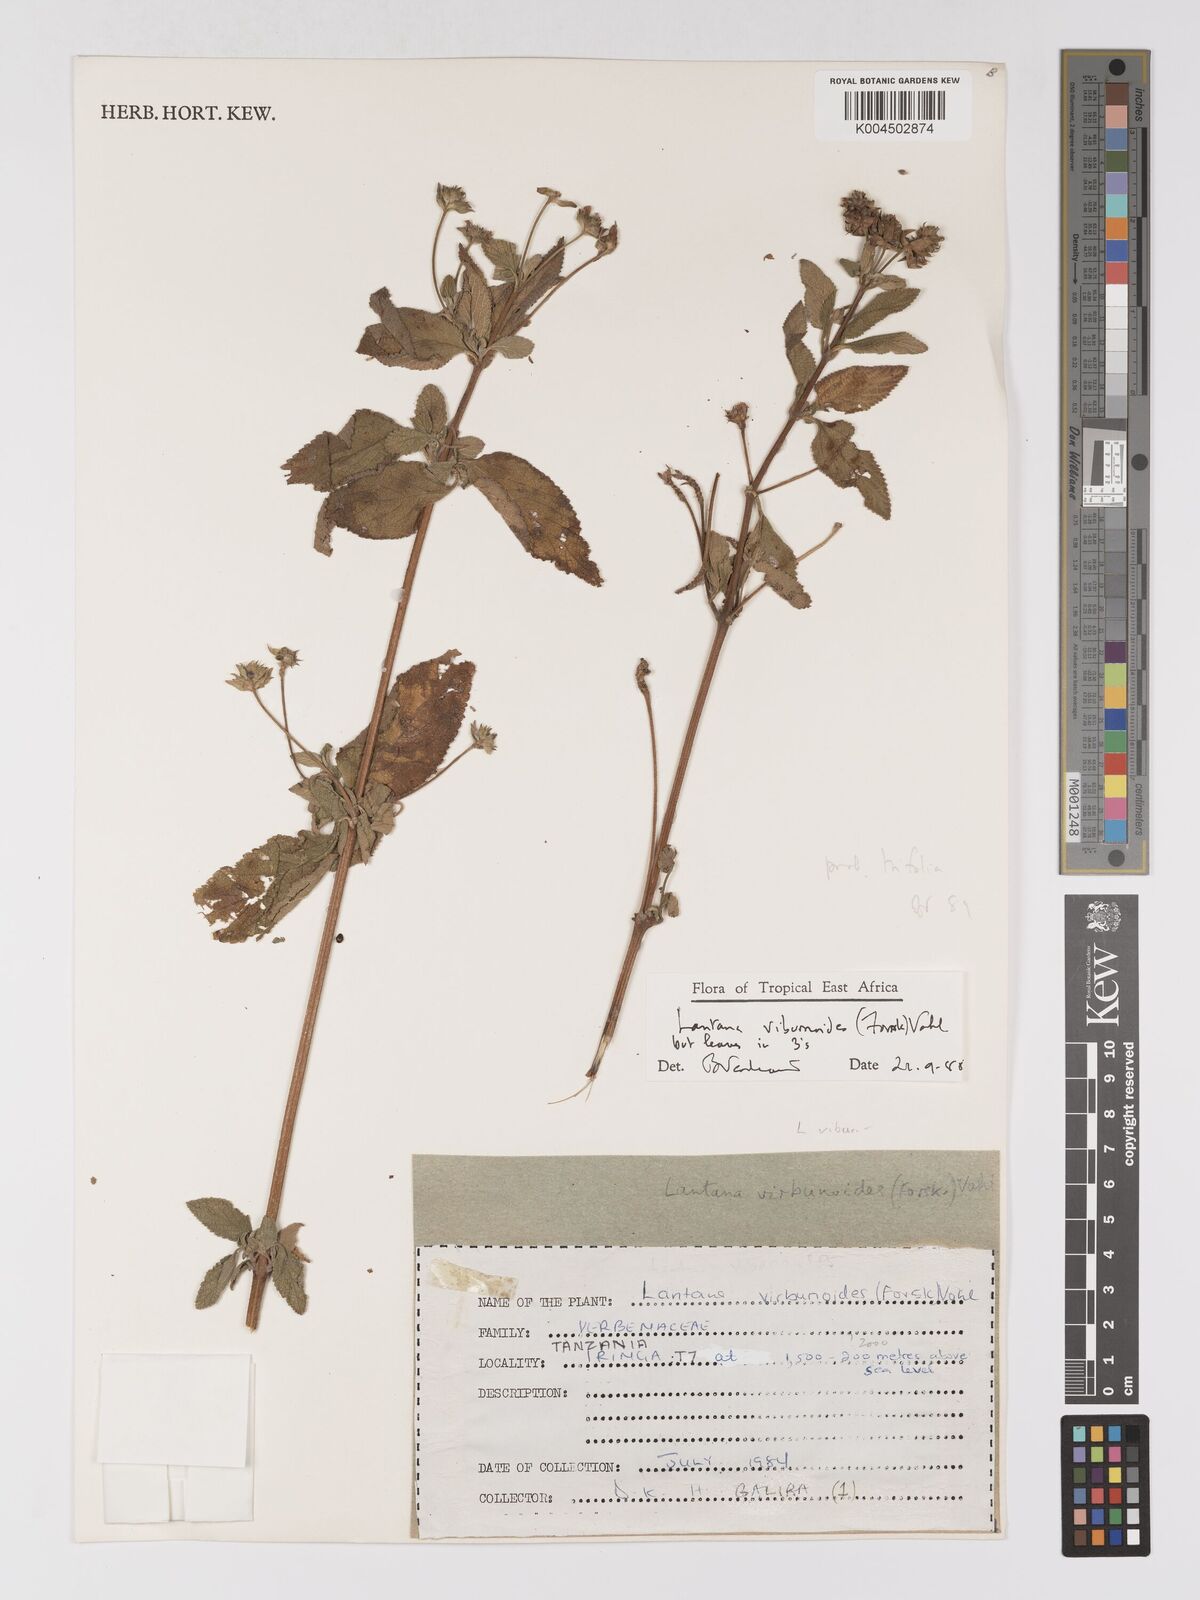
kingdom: Plantae
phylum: Tracheophyta
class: Magnoliopsida
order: Lamiales
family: Verbenaceae
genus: Lantana
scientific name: Lantana trifolia
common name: Sweet-sage
